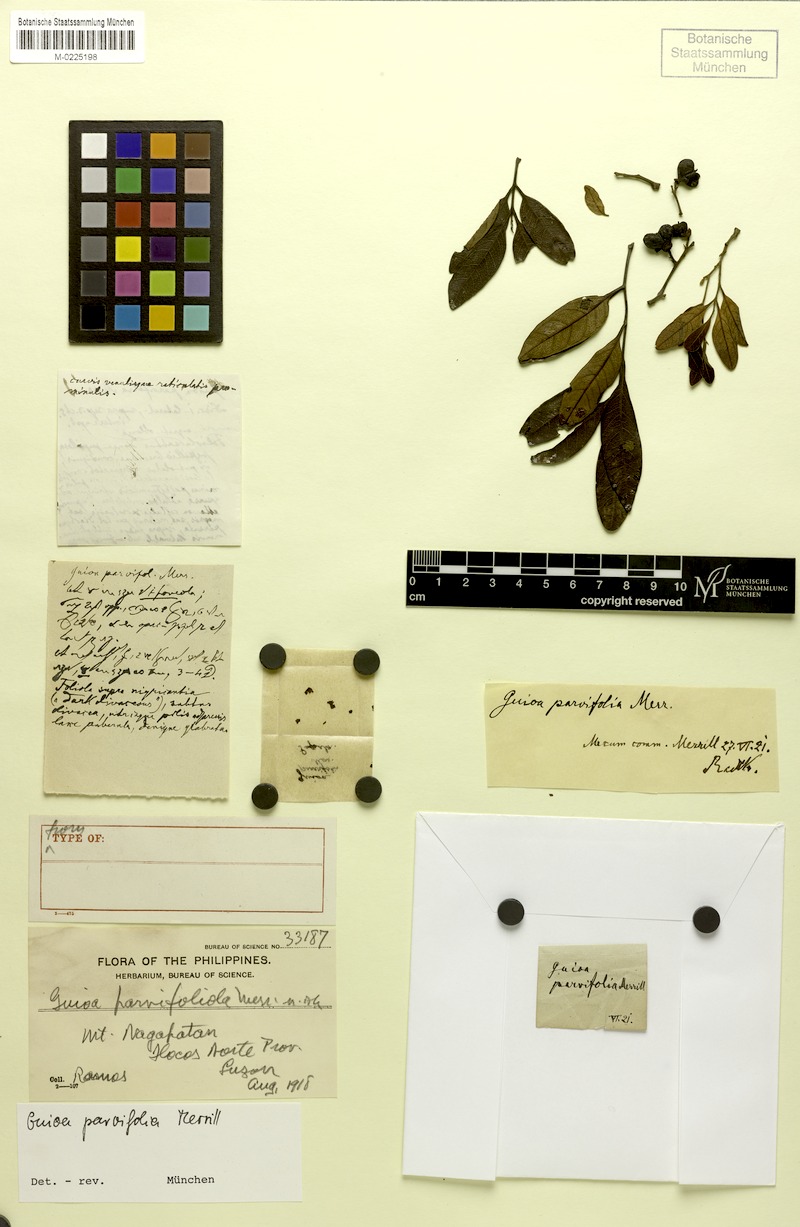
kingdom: Plantae
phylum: Tracheophyta
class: Magnoliopsida
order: Sapindales
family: Sapindaceae
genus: Guioa
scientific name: Guioa parvifoliola
